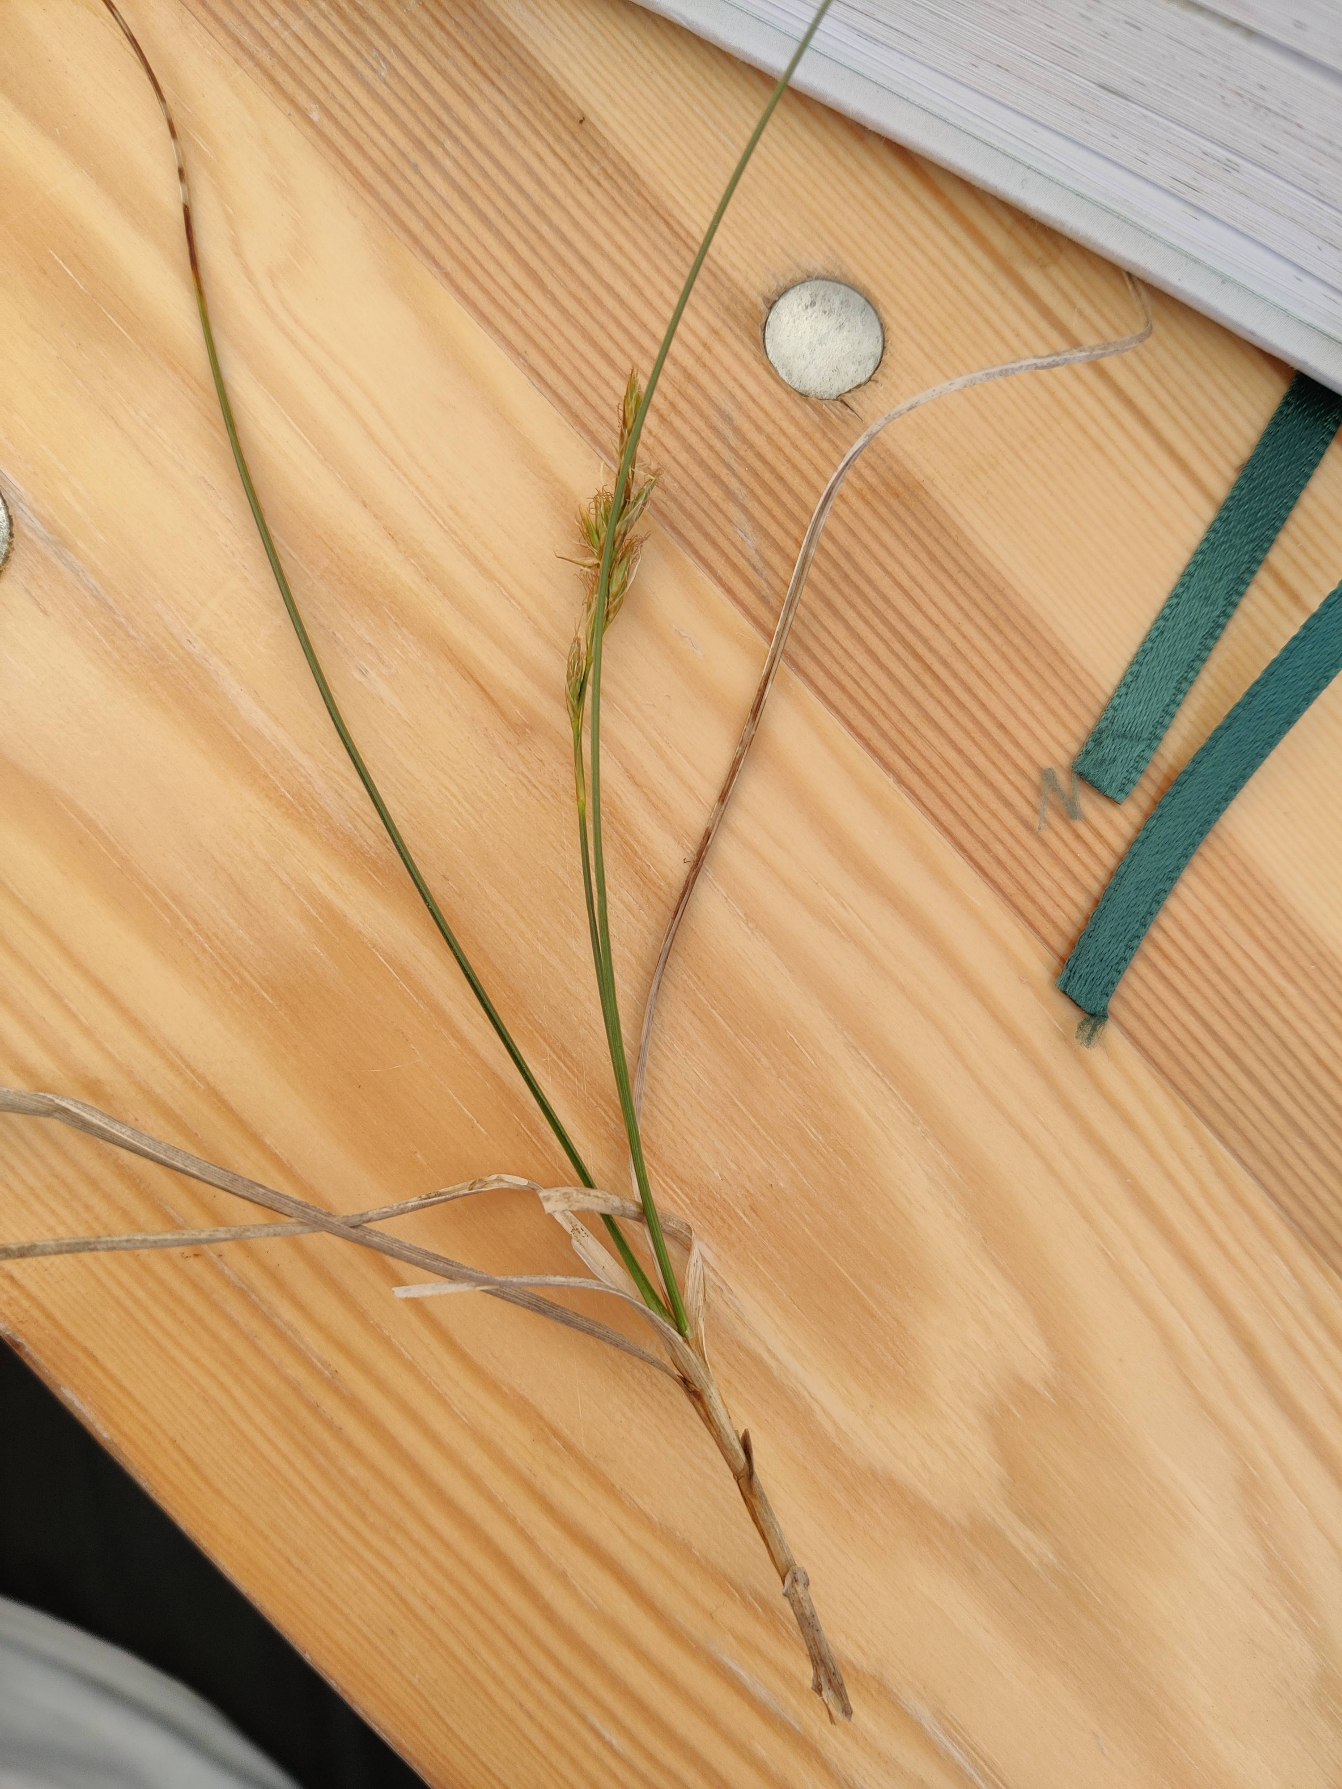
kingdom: Plantae
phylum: Tracheophyta
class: Liliopsida
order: Poales
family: Cyperaceae
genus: Carex
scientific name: Carex arenaria
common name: Sand-star
